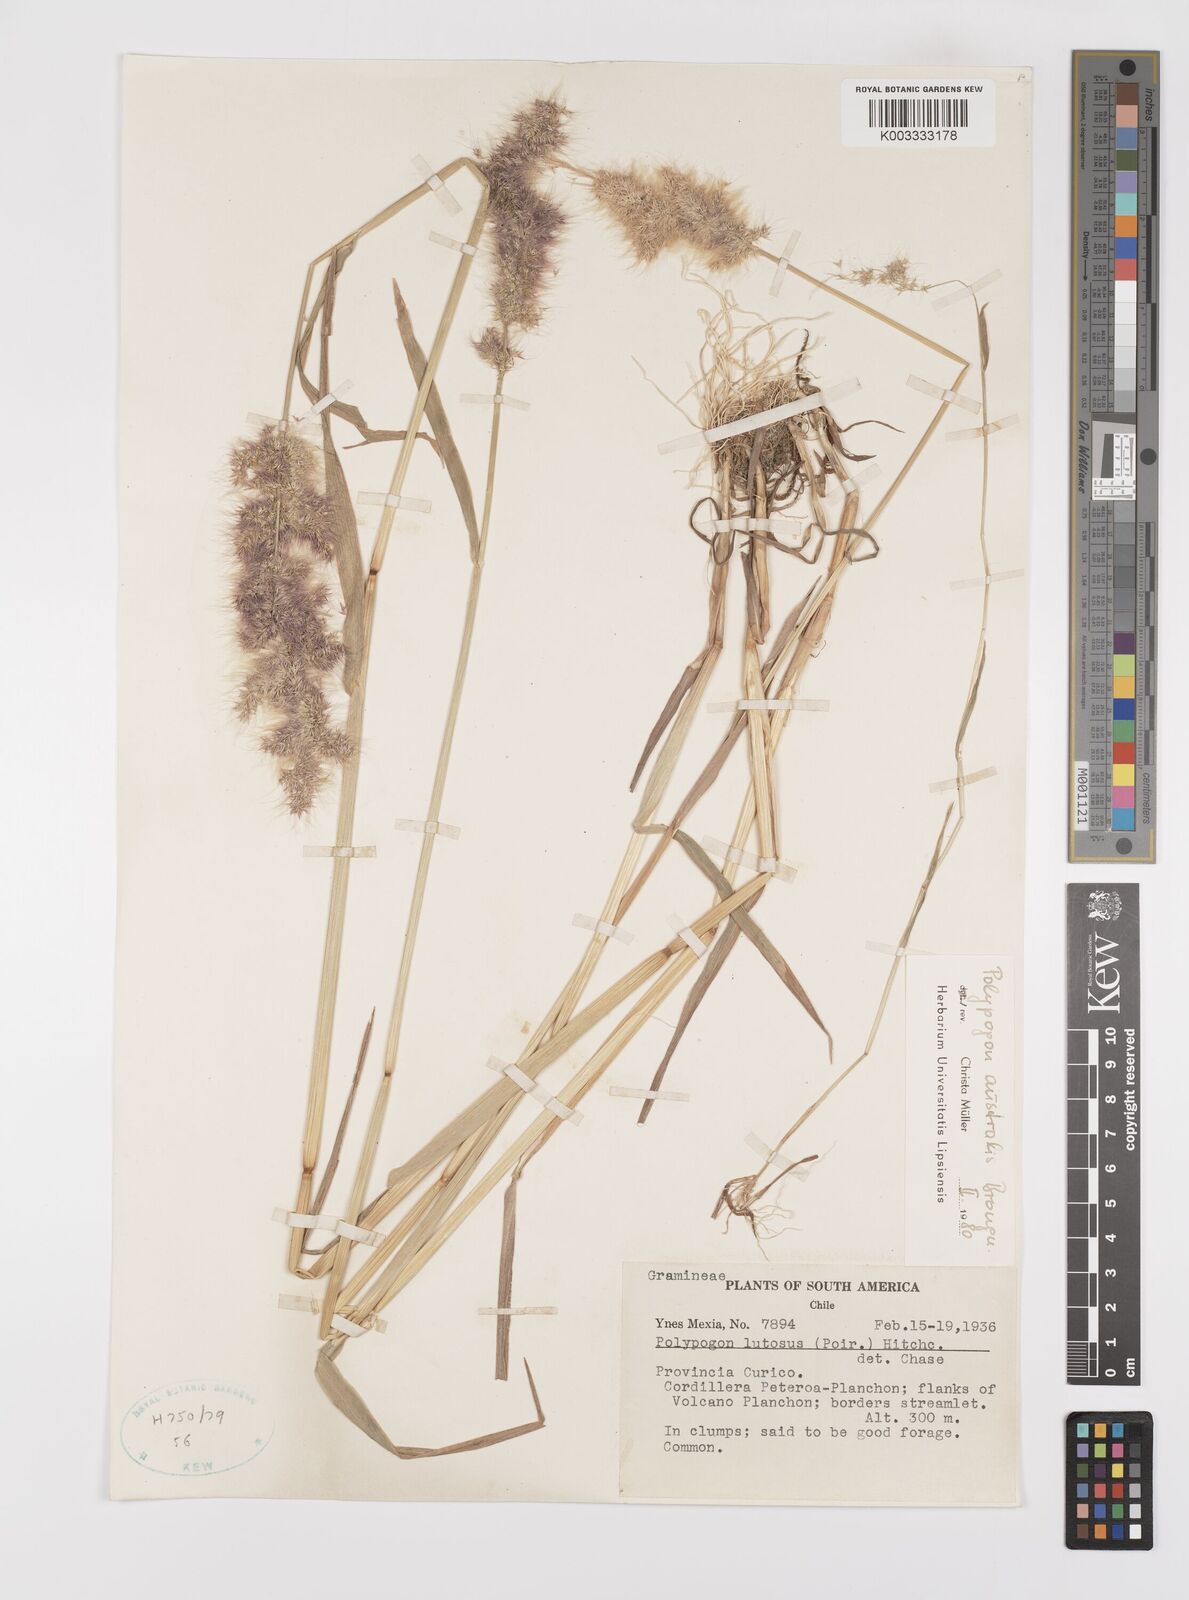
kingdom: Plantae
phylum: Tracheophyta
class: Liliopsida
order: Poales
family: Poaceae
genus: Polypogon
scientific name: Polypogon australis
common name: Chilean rabbitsfoot grass
